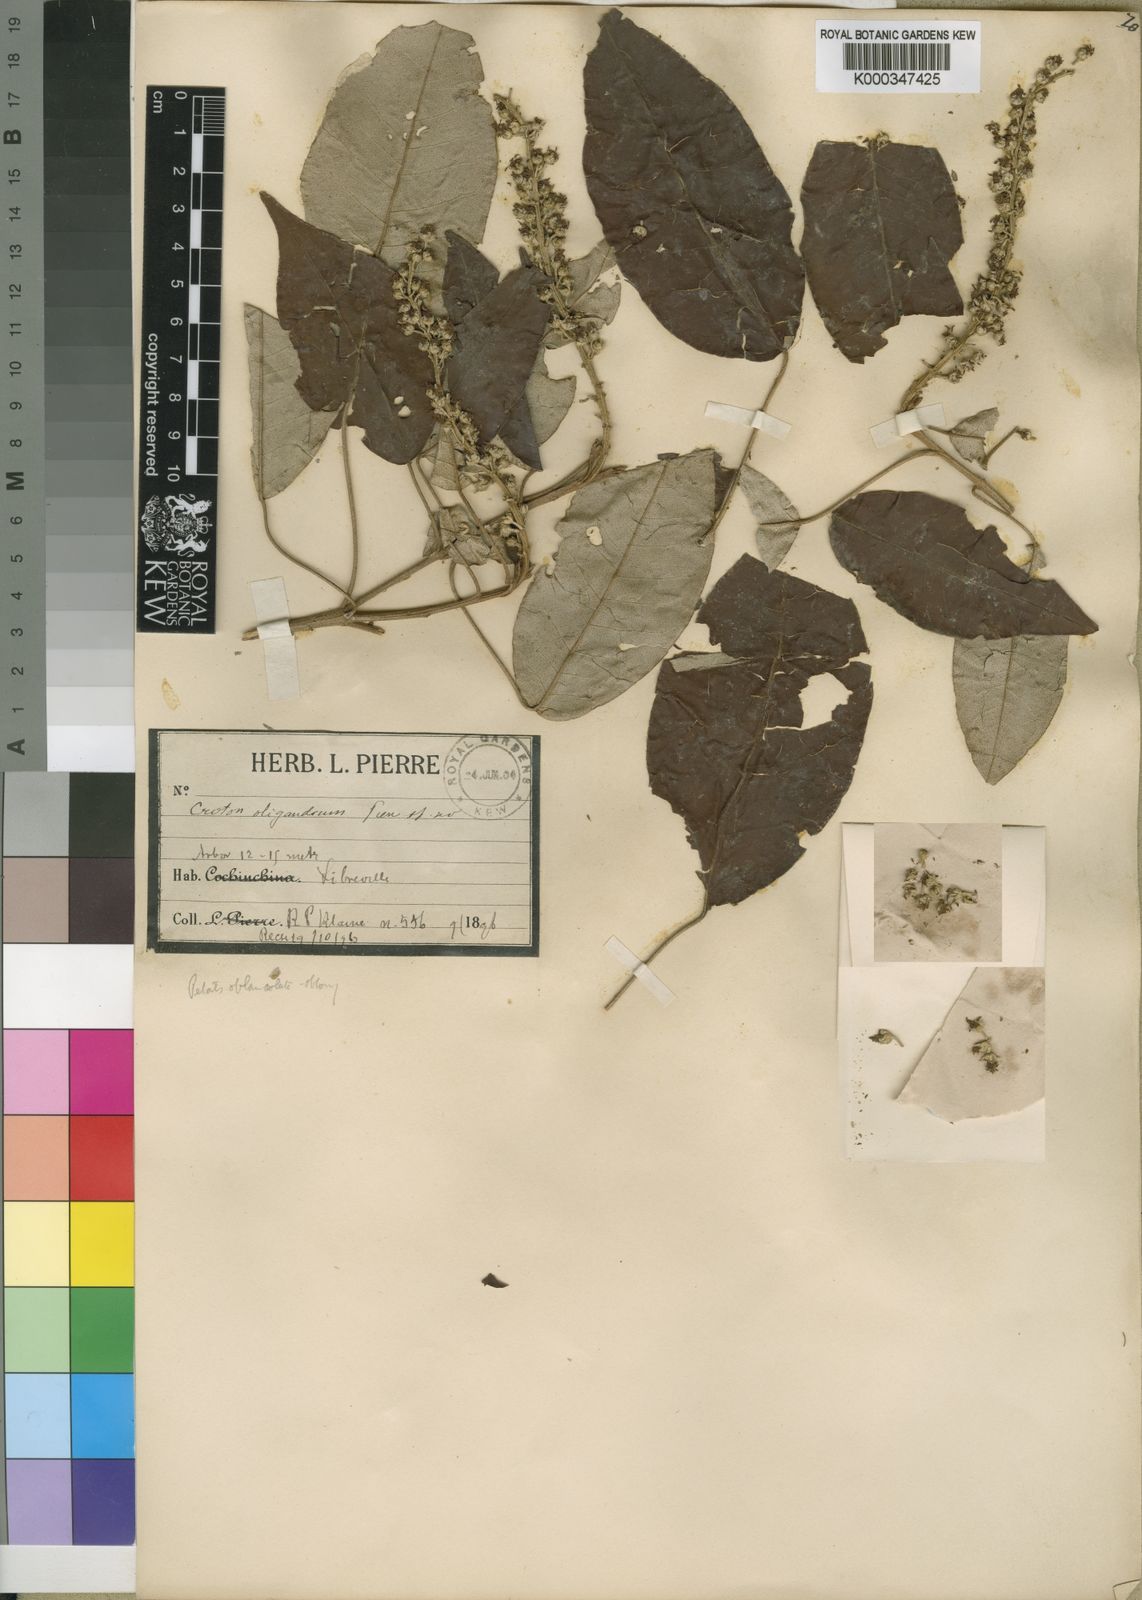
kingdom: Plantae
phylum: Tracheophyta
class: Magnoliopsida
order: Malpighiales
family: Euphorbiaceae
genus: Croton
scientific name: Croton oligandrus
